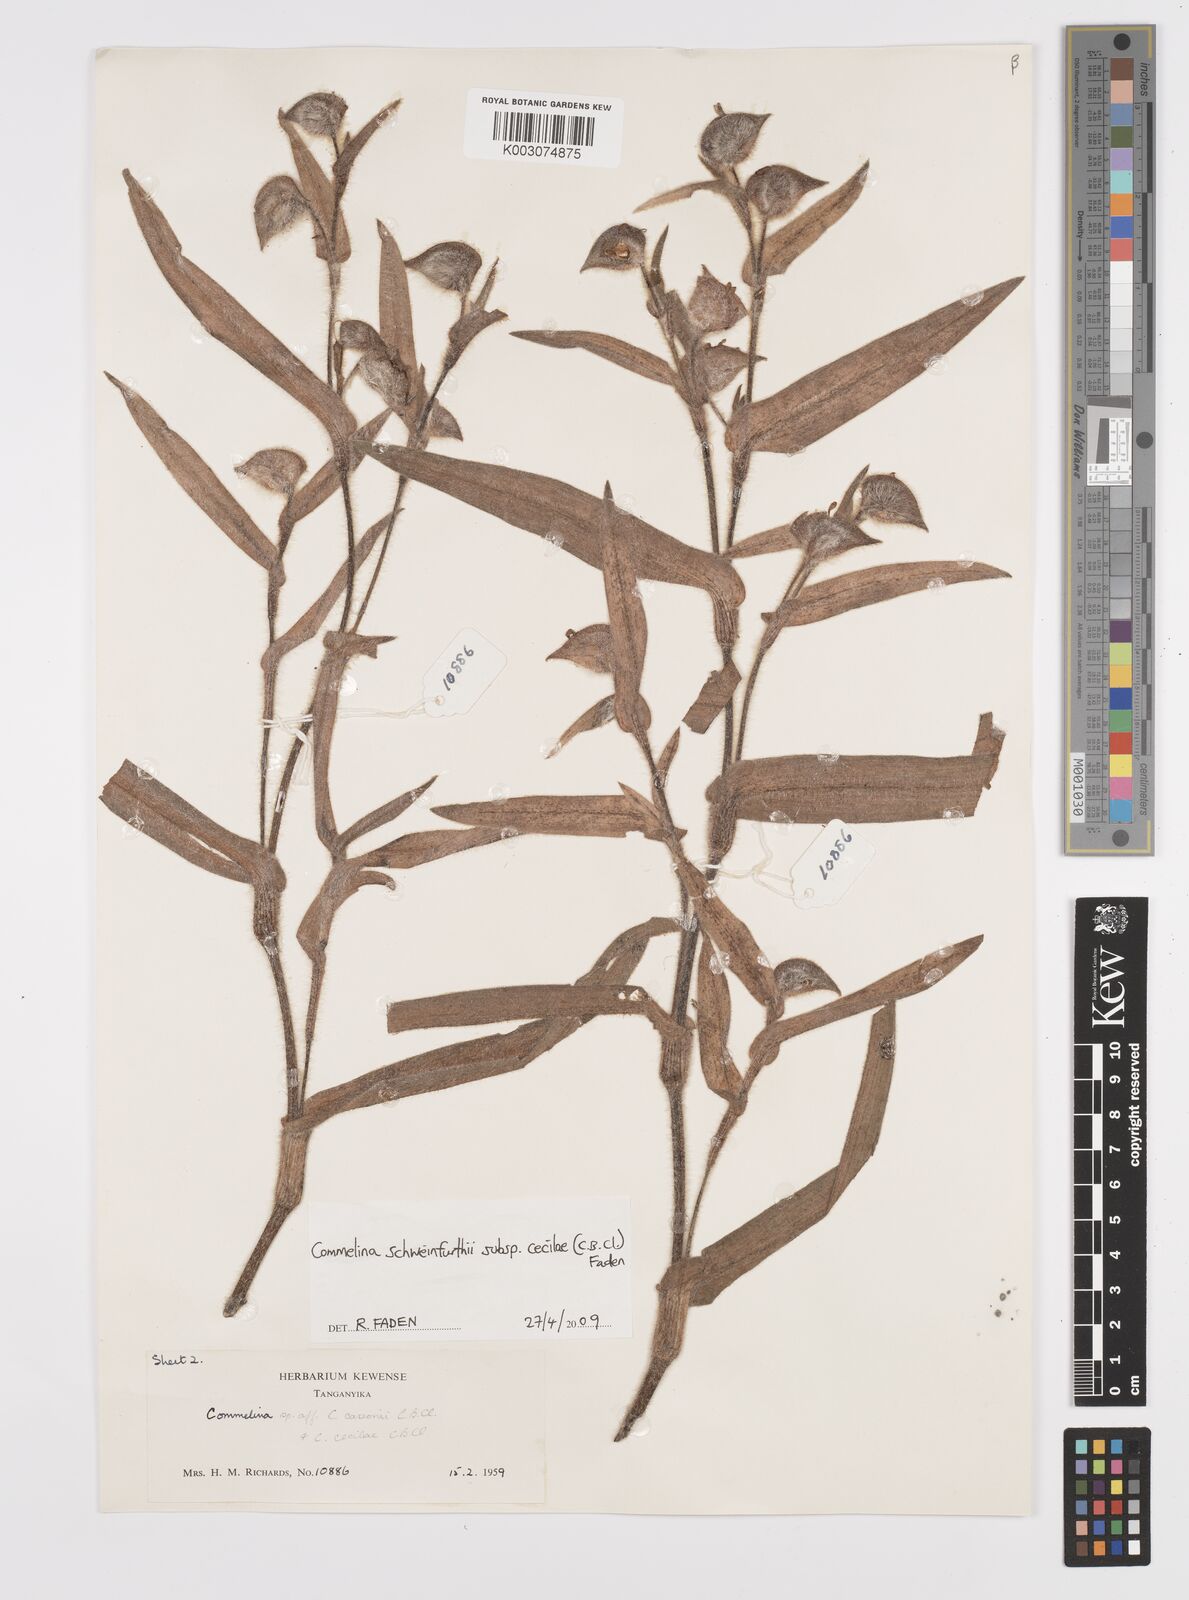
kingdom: Plantae
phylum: Tracheophyta
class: Liliopsida
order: Commelinales
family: Commelinaceae
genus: Commelina
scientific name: Commelina cecilae
